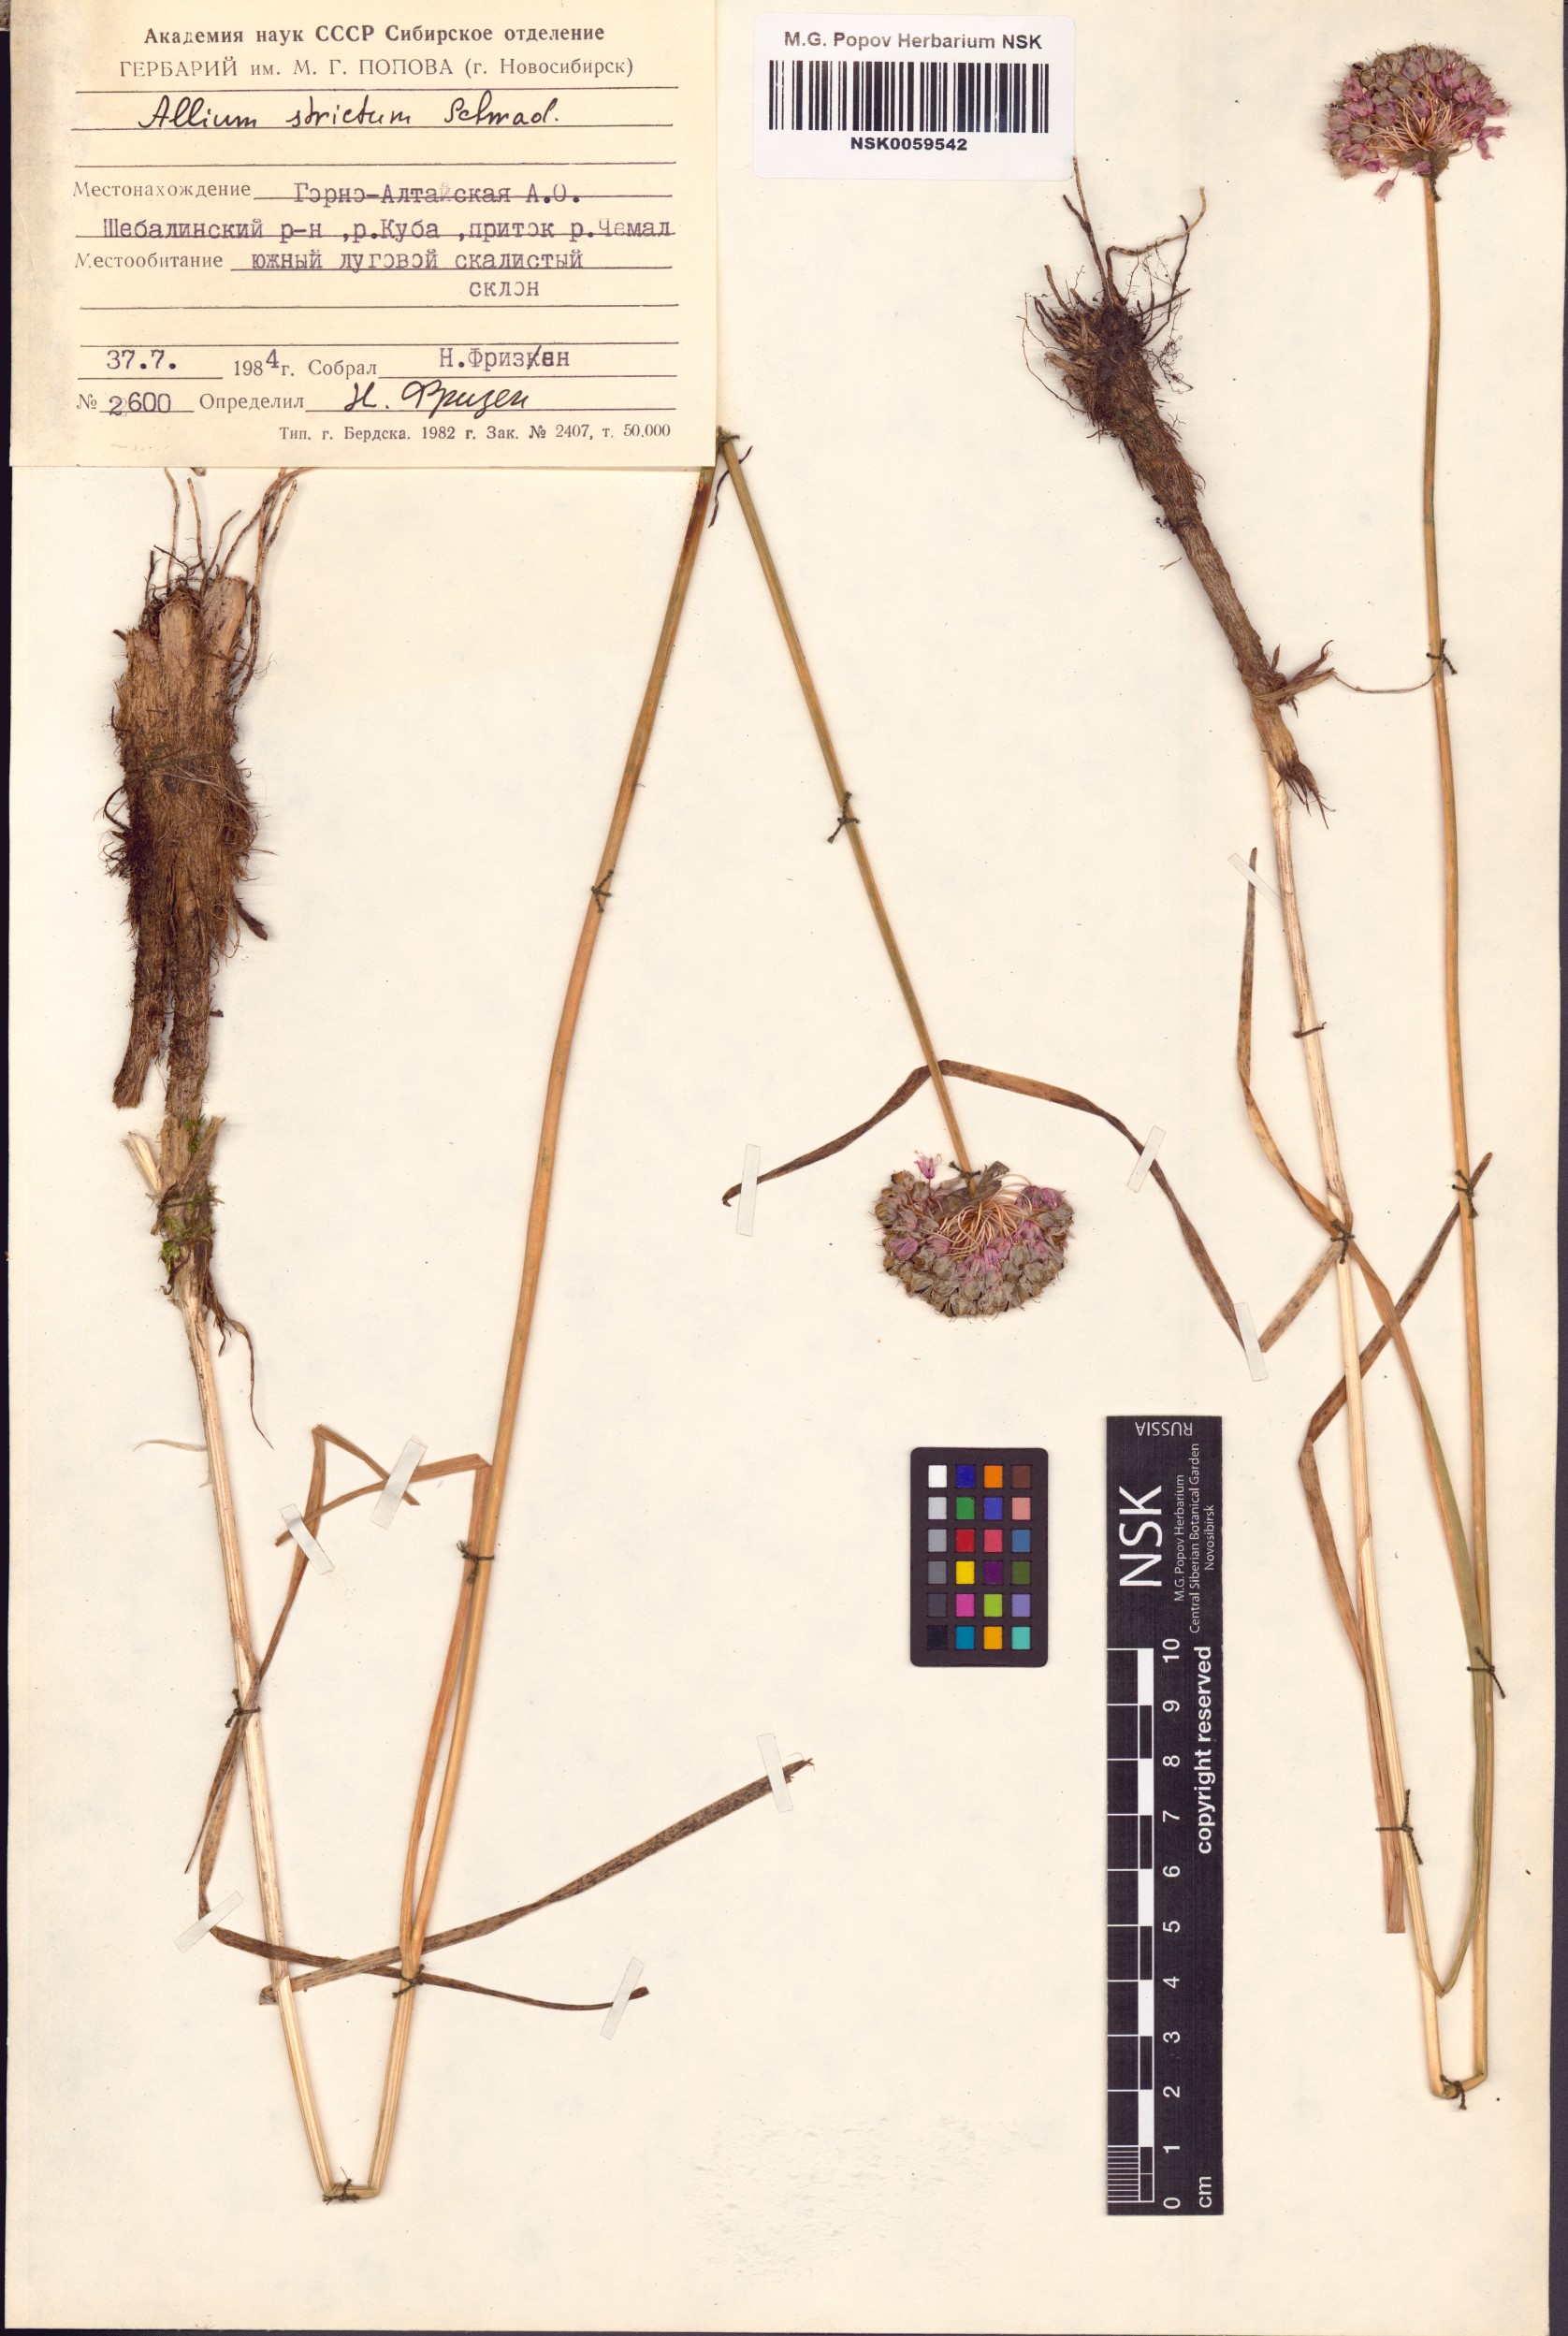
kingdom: Plantae
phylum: Tracheophyta
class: Liliopsida
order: Asparagales
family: Amaryllidaceae
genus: Allium
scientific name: Allium strictum
